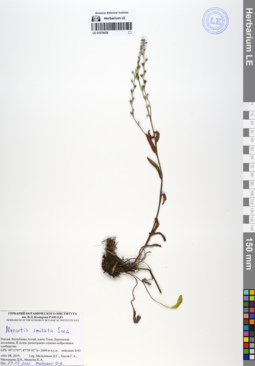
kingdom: Plantae
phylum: Tracheophyta
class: Magnoliopsida
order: Boraginales
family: Boraginaceae
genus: Myosotis
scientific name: Myosotis imitata
